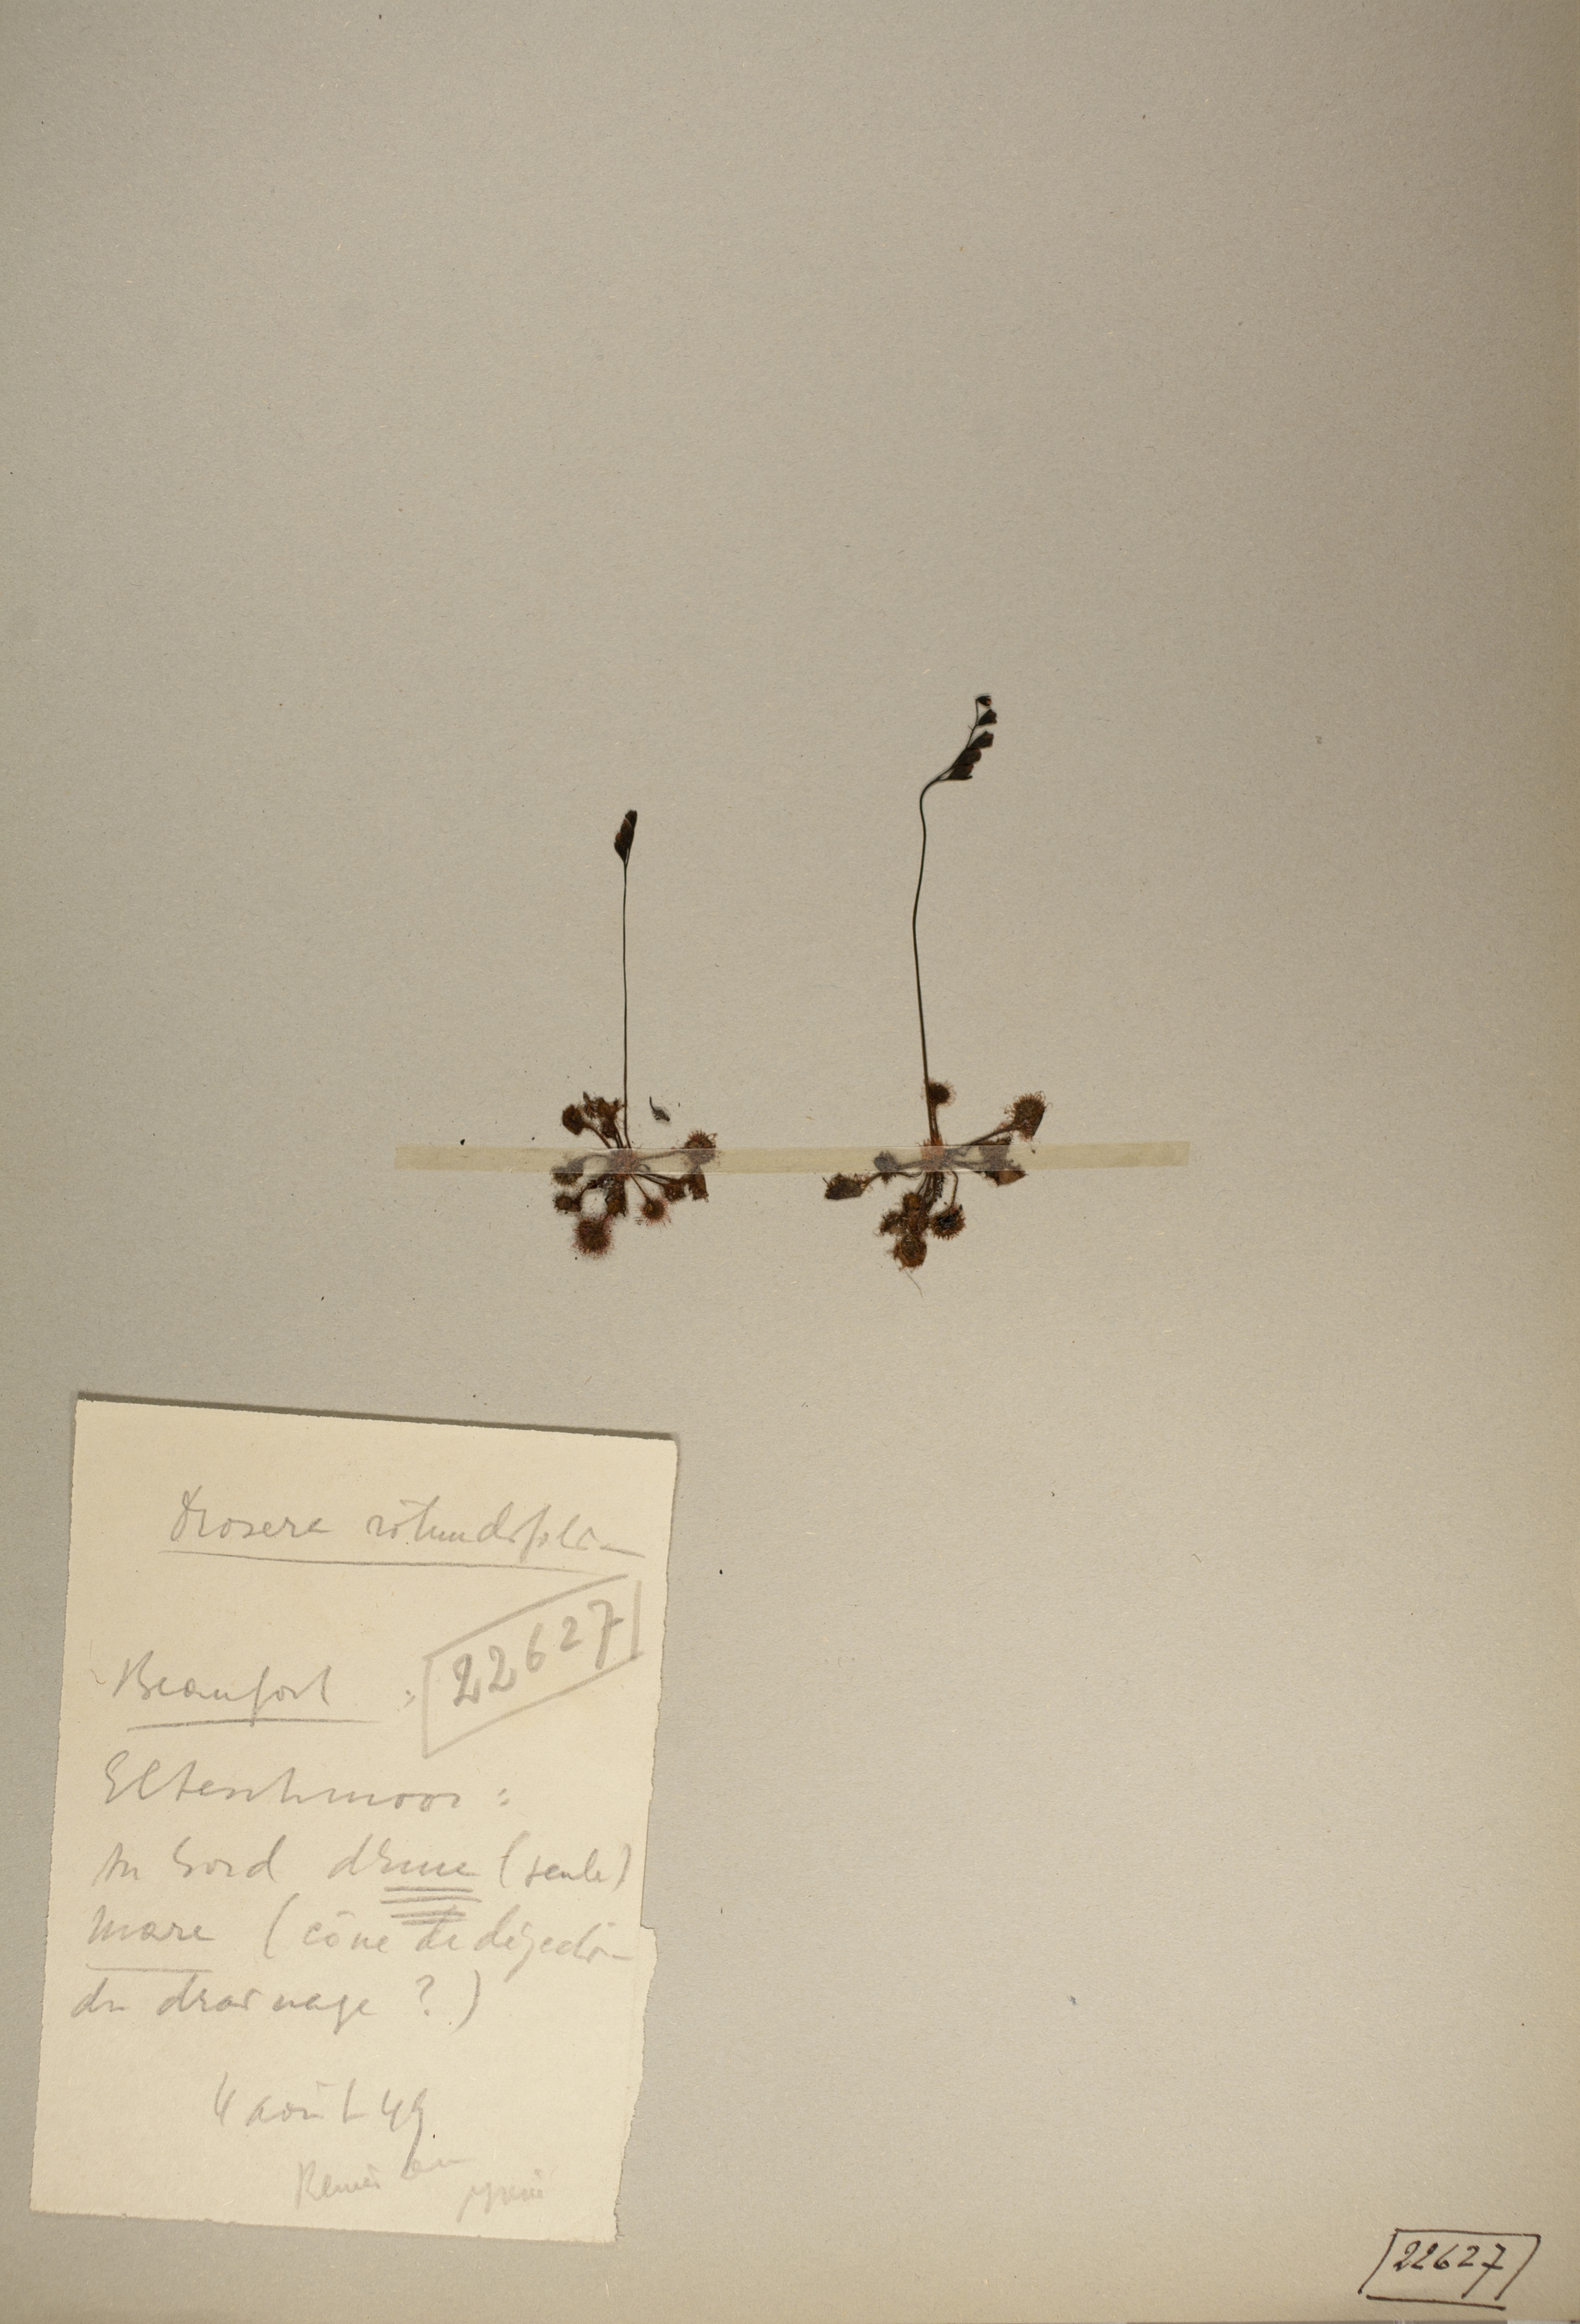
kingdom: Plantae
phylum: Tracheophyta
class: Magnoliopsida
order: Caryophyllales
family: Droseraceae
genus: Drosera
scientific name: Drosera rotundifolia
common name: Round-leaved sundew
